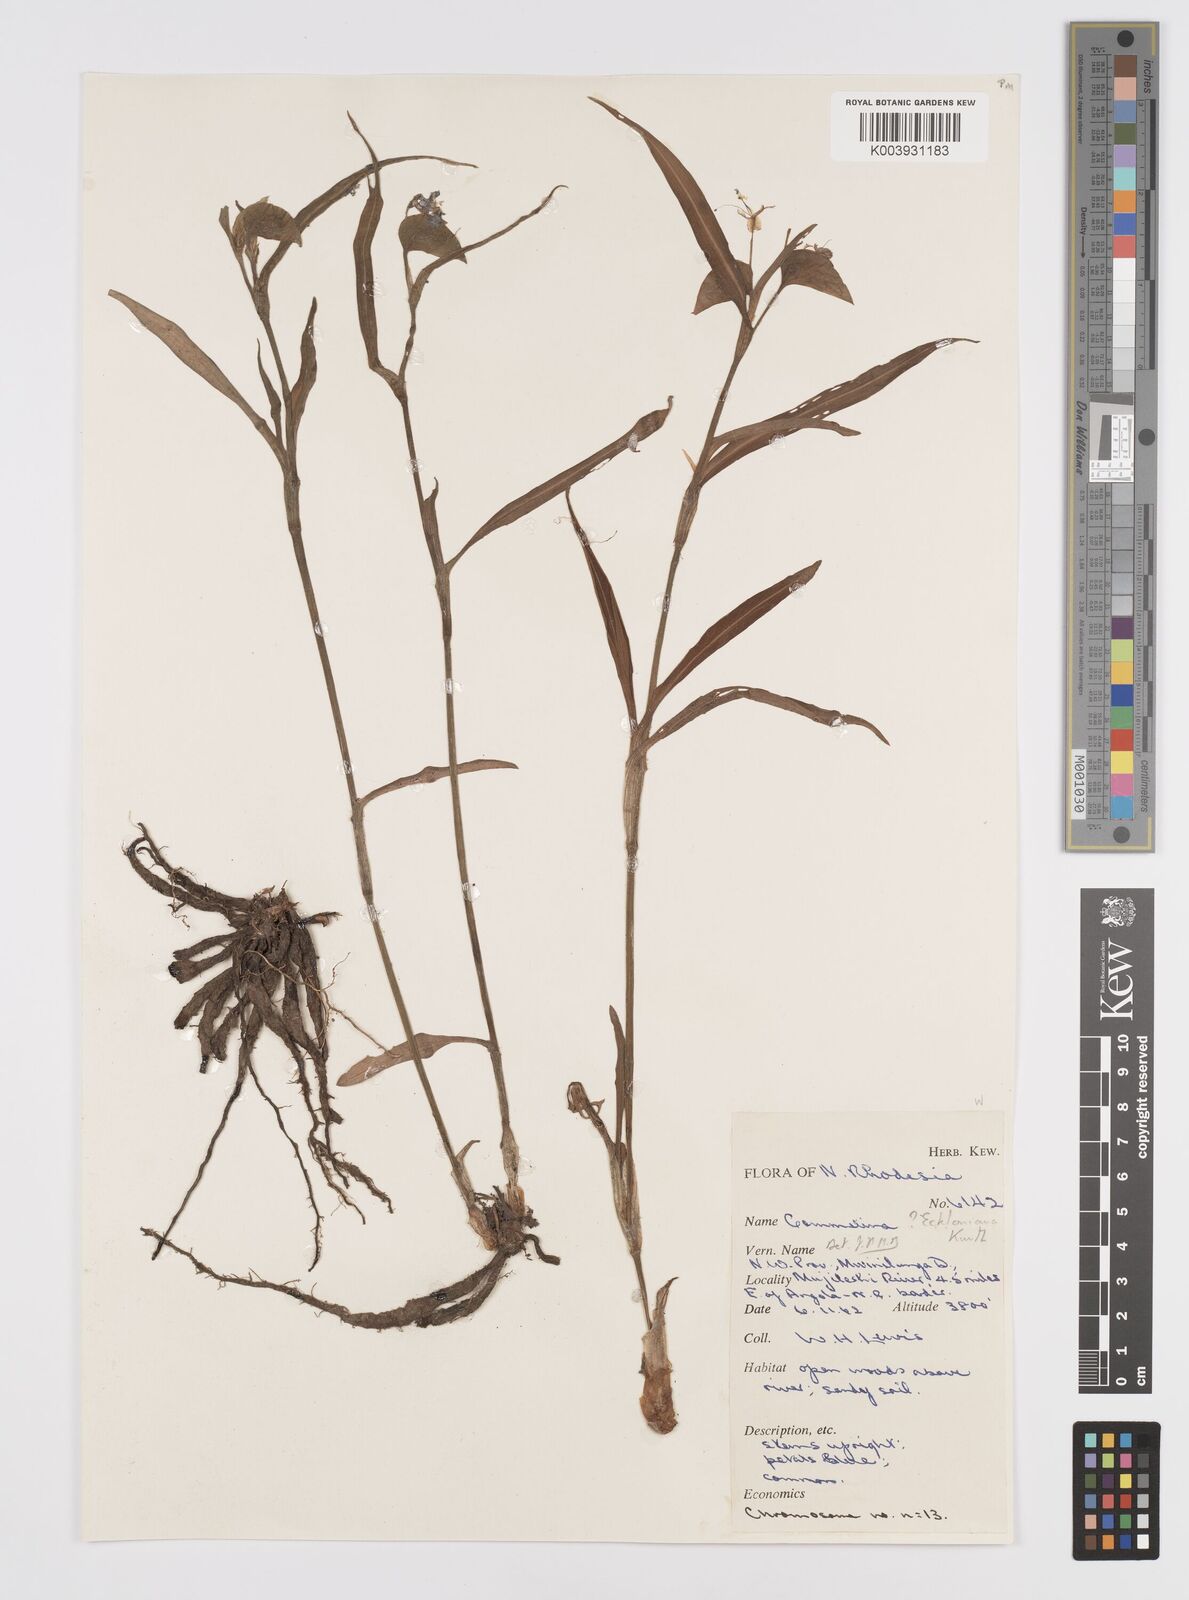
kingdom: Plantae
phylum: Tracheophyta
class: Liliopsida
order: Commelinales
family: Commelinaceae
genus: Commelina
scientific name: Commelina eckloniana
